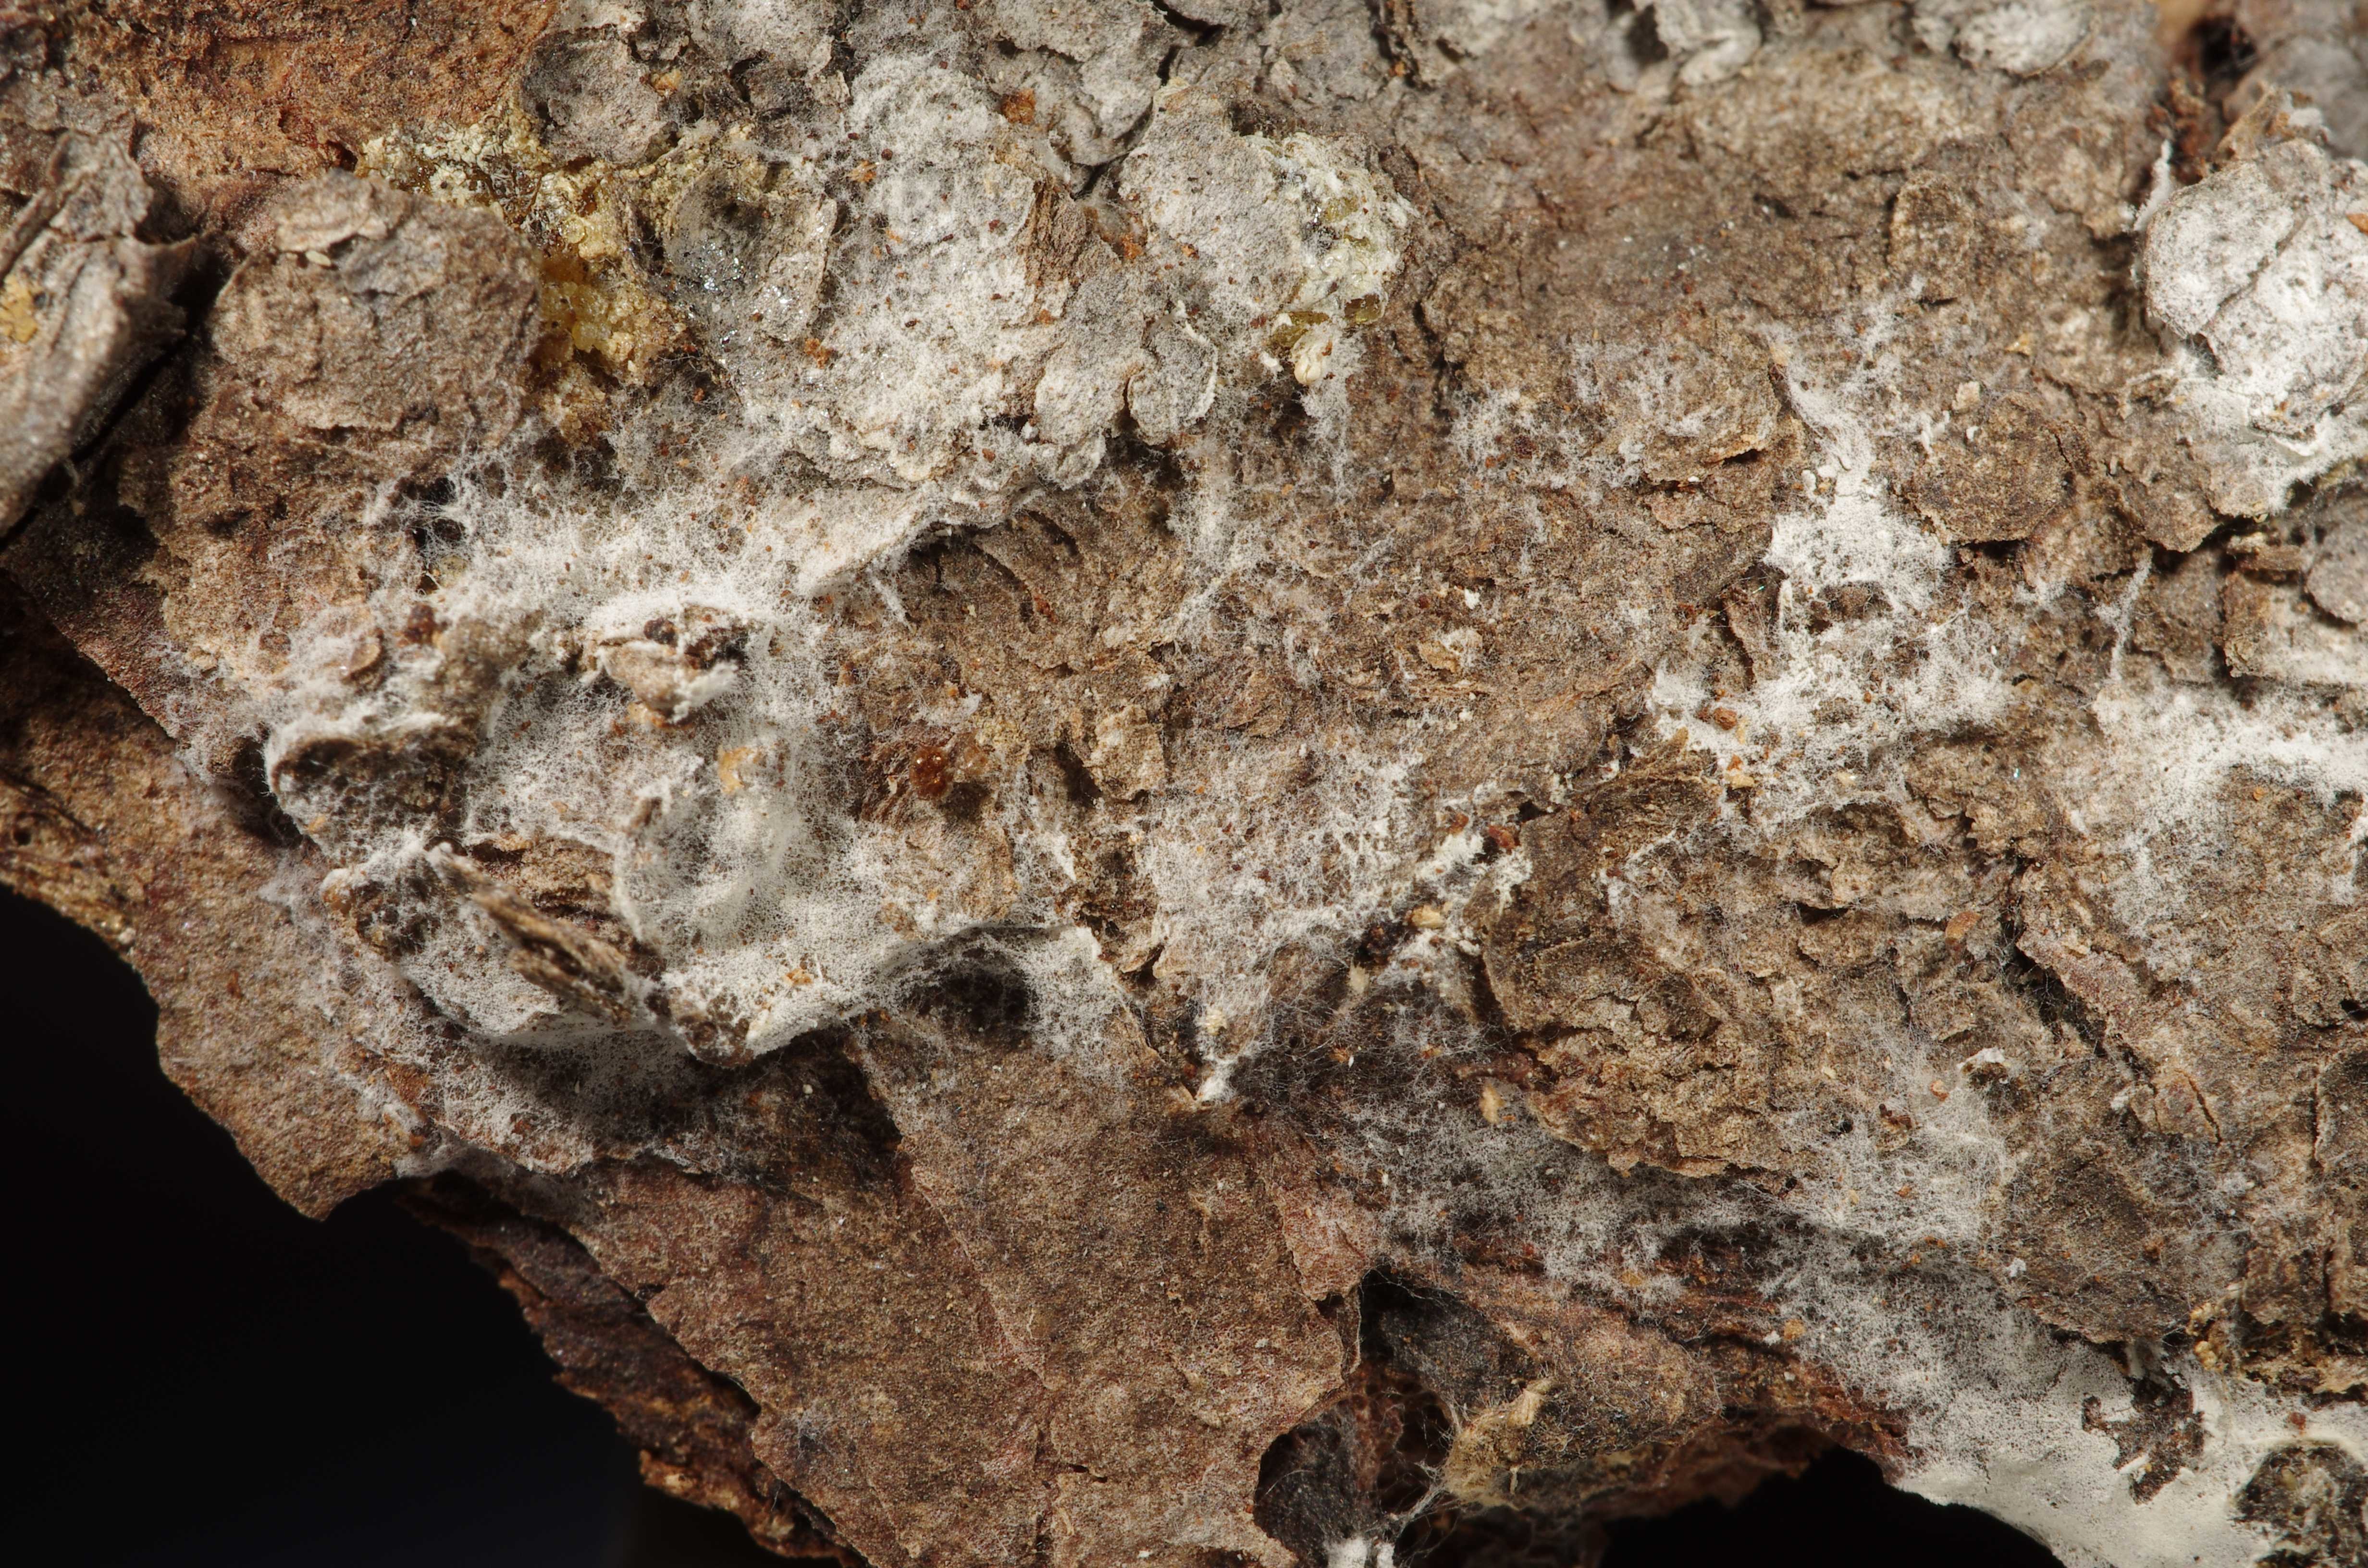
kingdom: Fungi
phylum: Basidiomycota
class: Agaricomycetes
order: Atheliales
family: Atheliaceae
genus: Athelia
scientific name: Athelia
